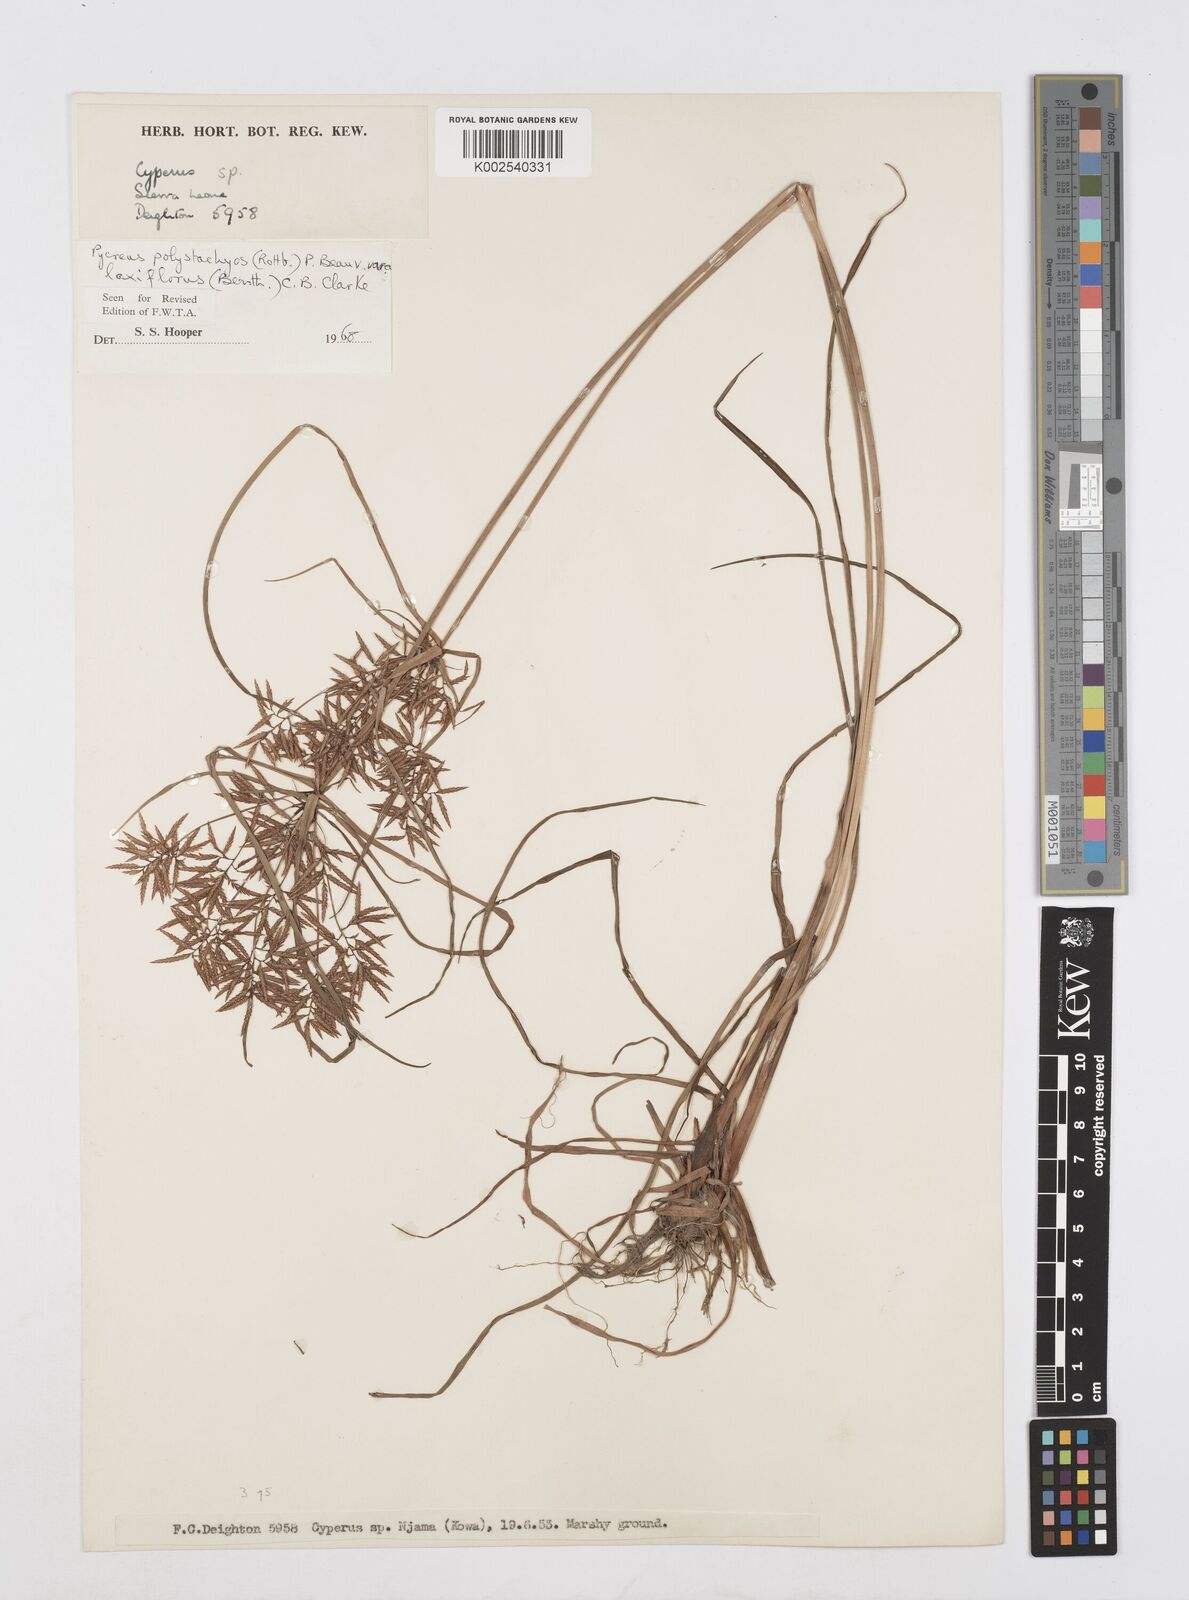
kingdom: Plantae
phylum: Tracheophyta
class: Liliopsida
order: Poales
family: Cyperaceae
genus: Cyperus
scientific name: Cyperus polystachyos
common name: Bunchy flat sedge
